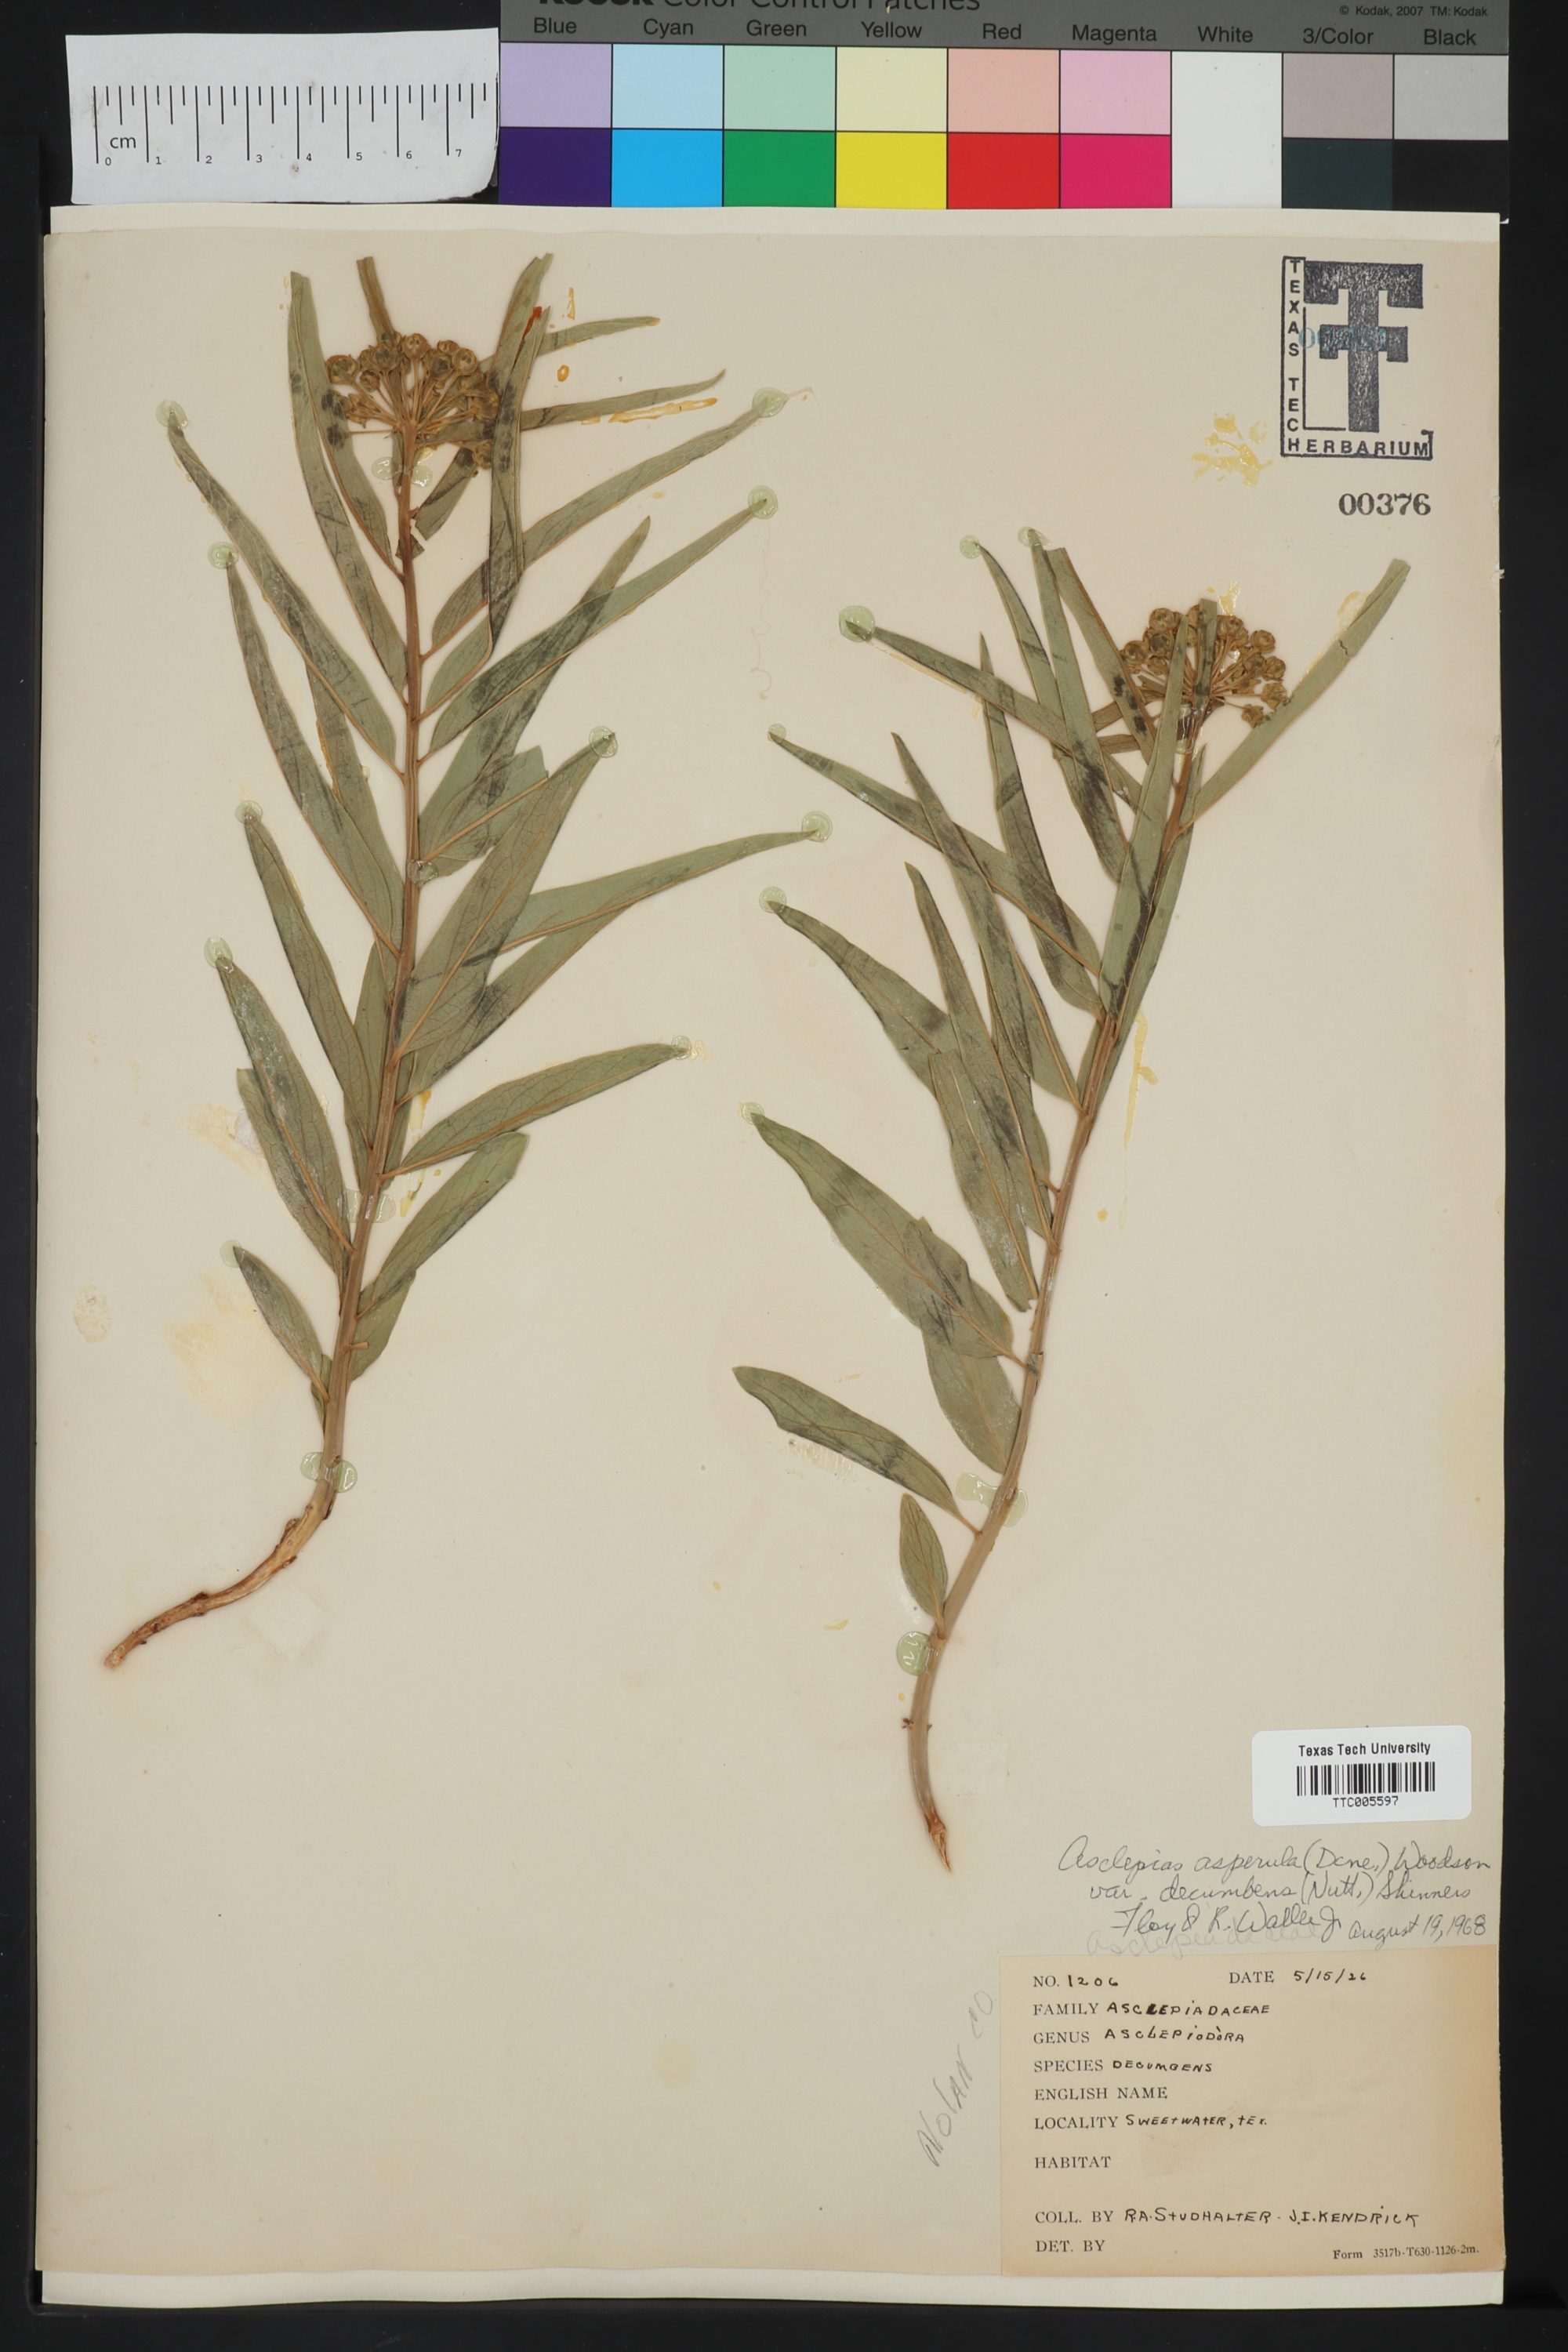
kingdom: Plantae
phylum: Tracheophyta
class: Magnoliopsida
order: Gentianales
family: Apocynaceae
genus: Asclepias
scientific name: Asclepias asperula
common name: Antelope horns
